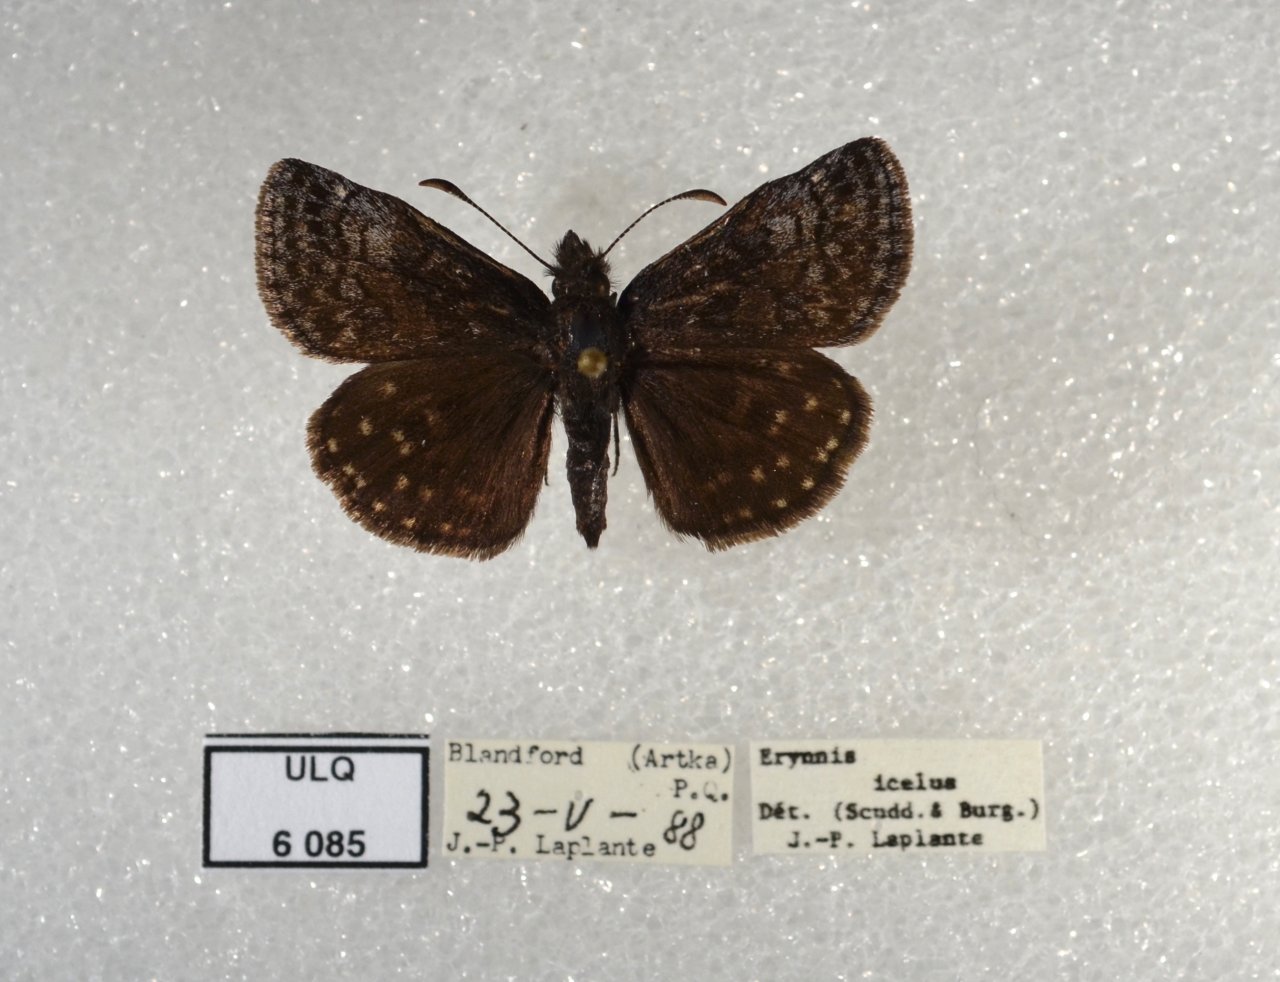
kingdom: Animalia
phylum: Arthropoda
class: Insecta
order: Lepidoptera
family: Hesperiidae
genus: Erynnis
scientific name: Erynnis icelus
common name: Dreamy Duskywing
